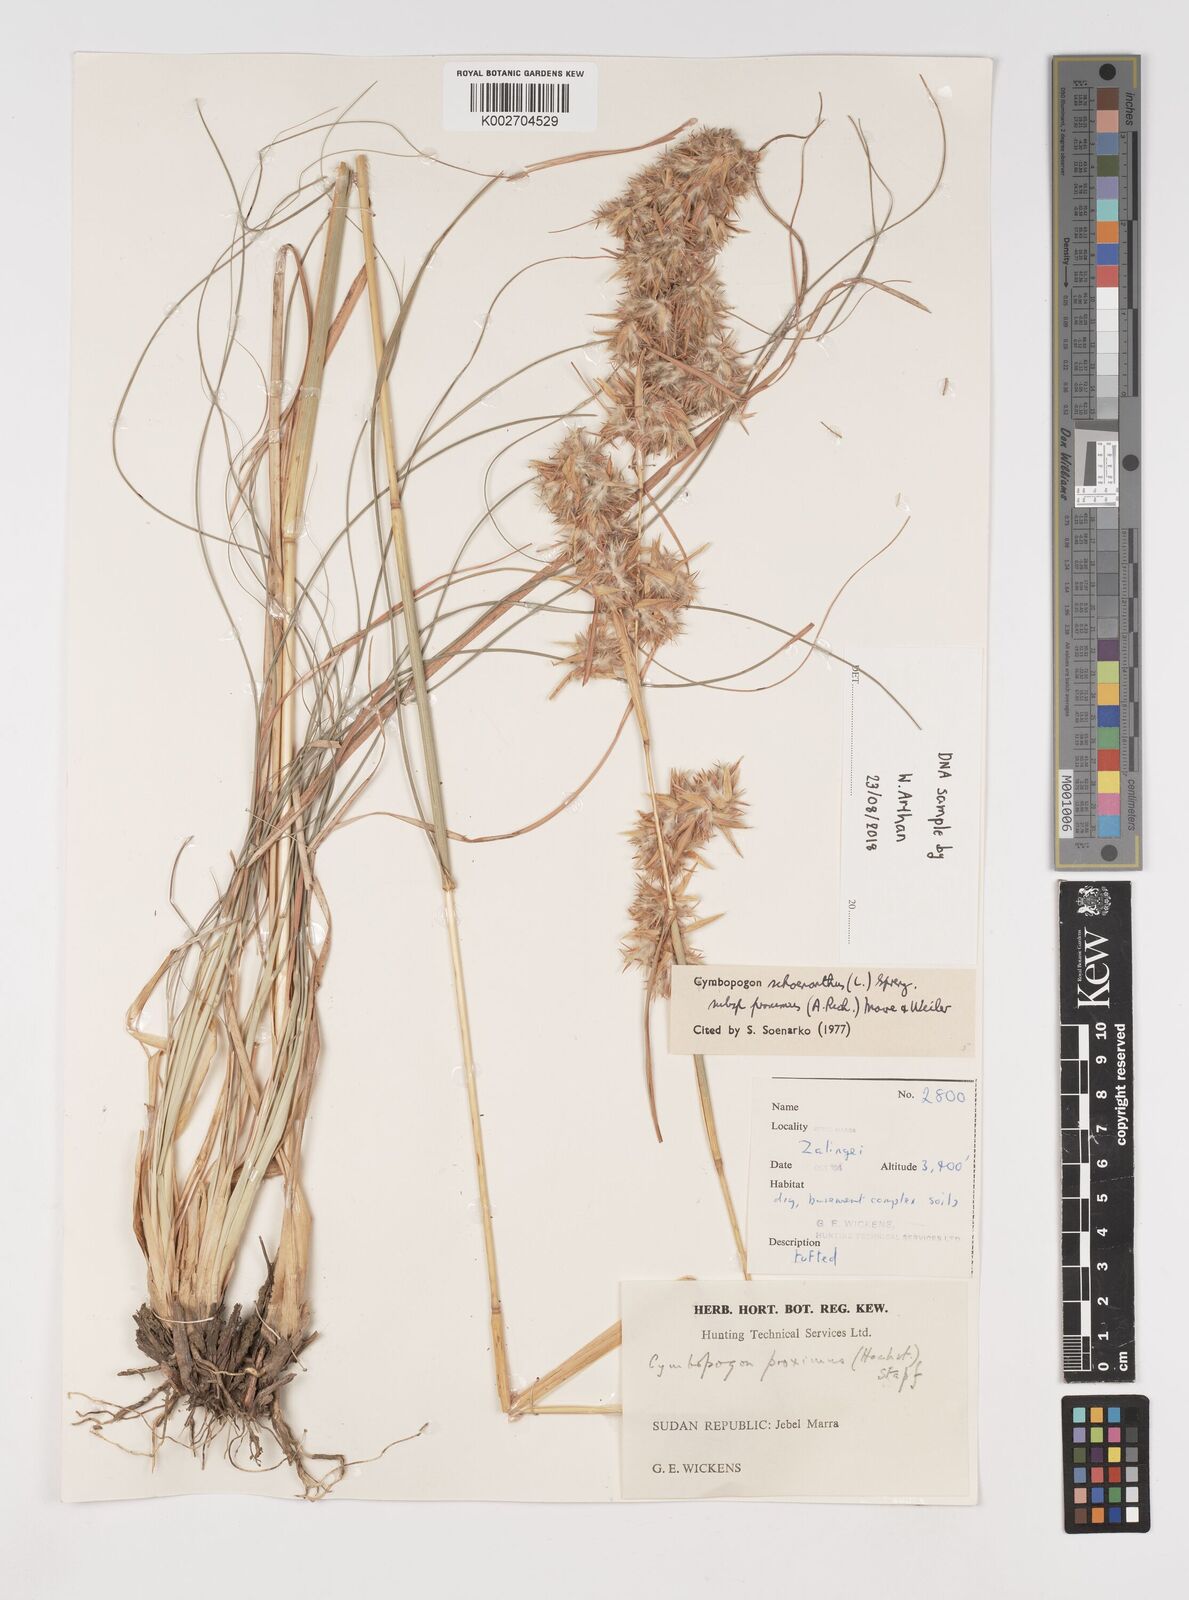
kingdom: Plantae
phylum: Tracheophyta
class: Liliopsida
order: Poales
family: Poaceae
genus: Cymbopogon
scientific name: Cymbopogon schoenanthus
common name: Geranium grass
